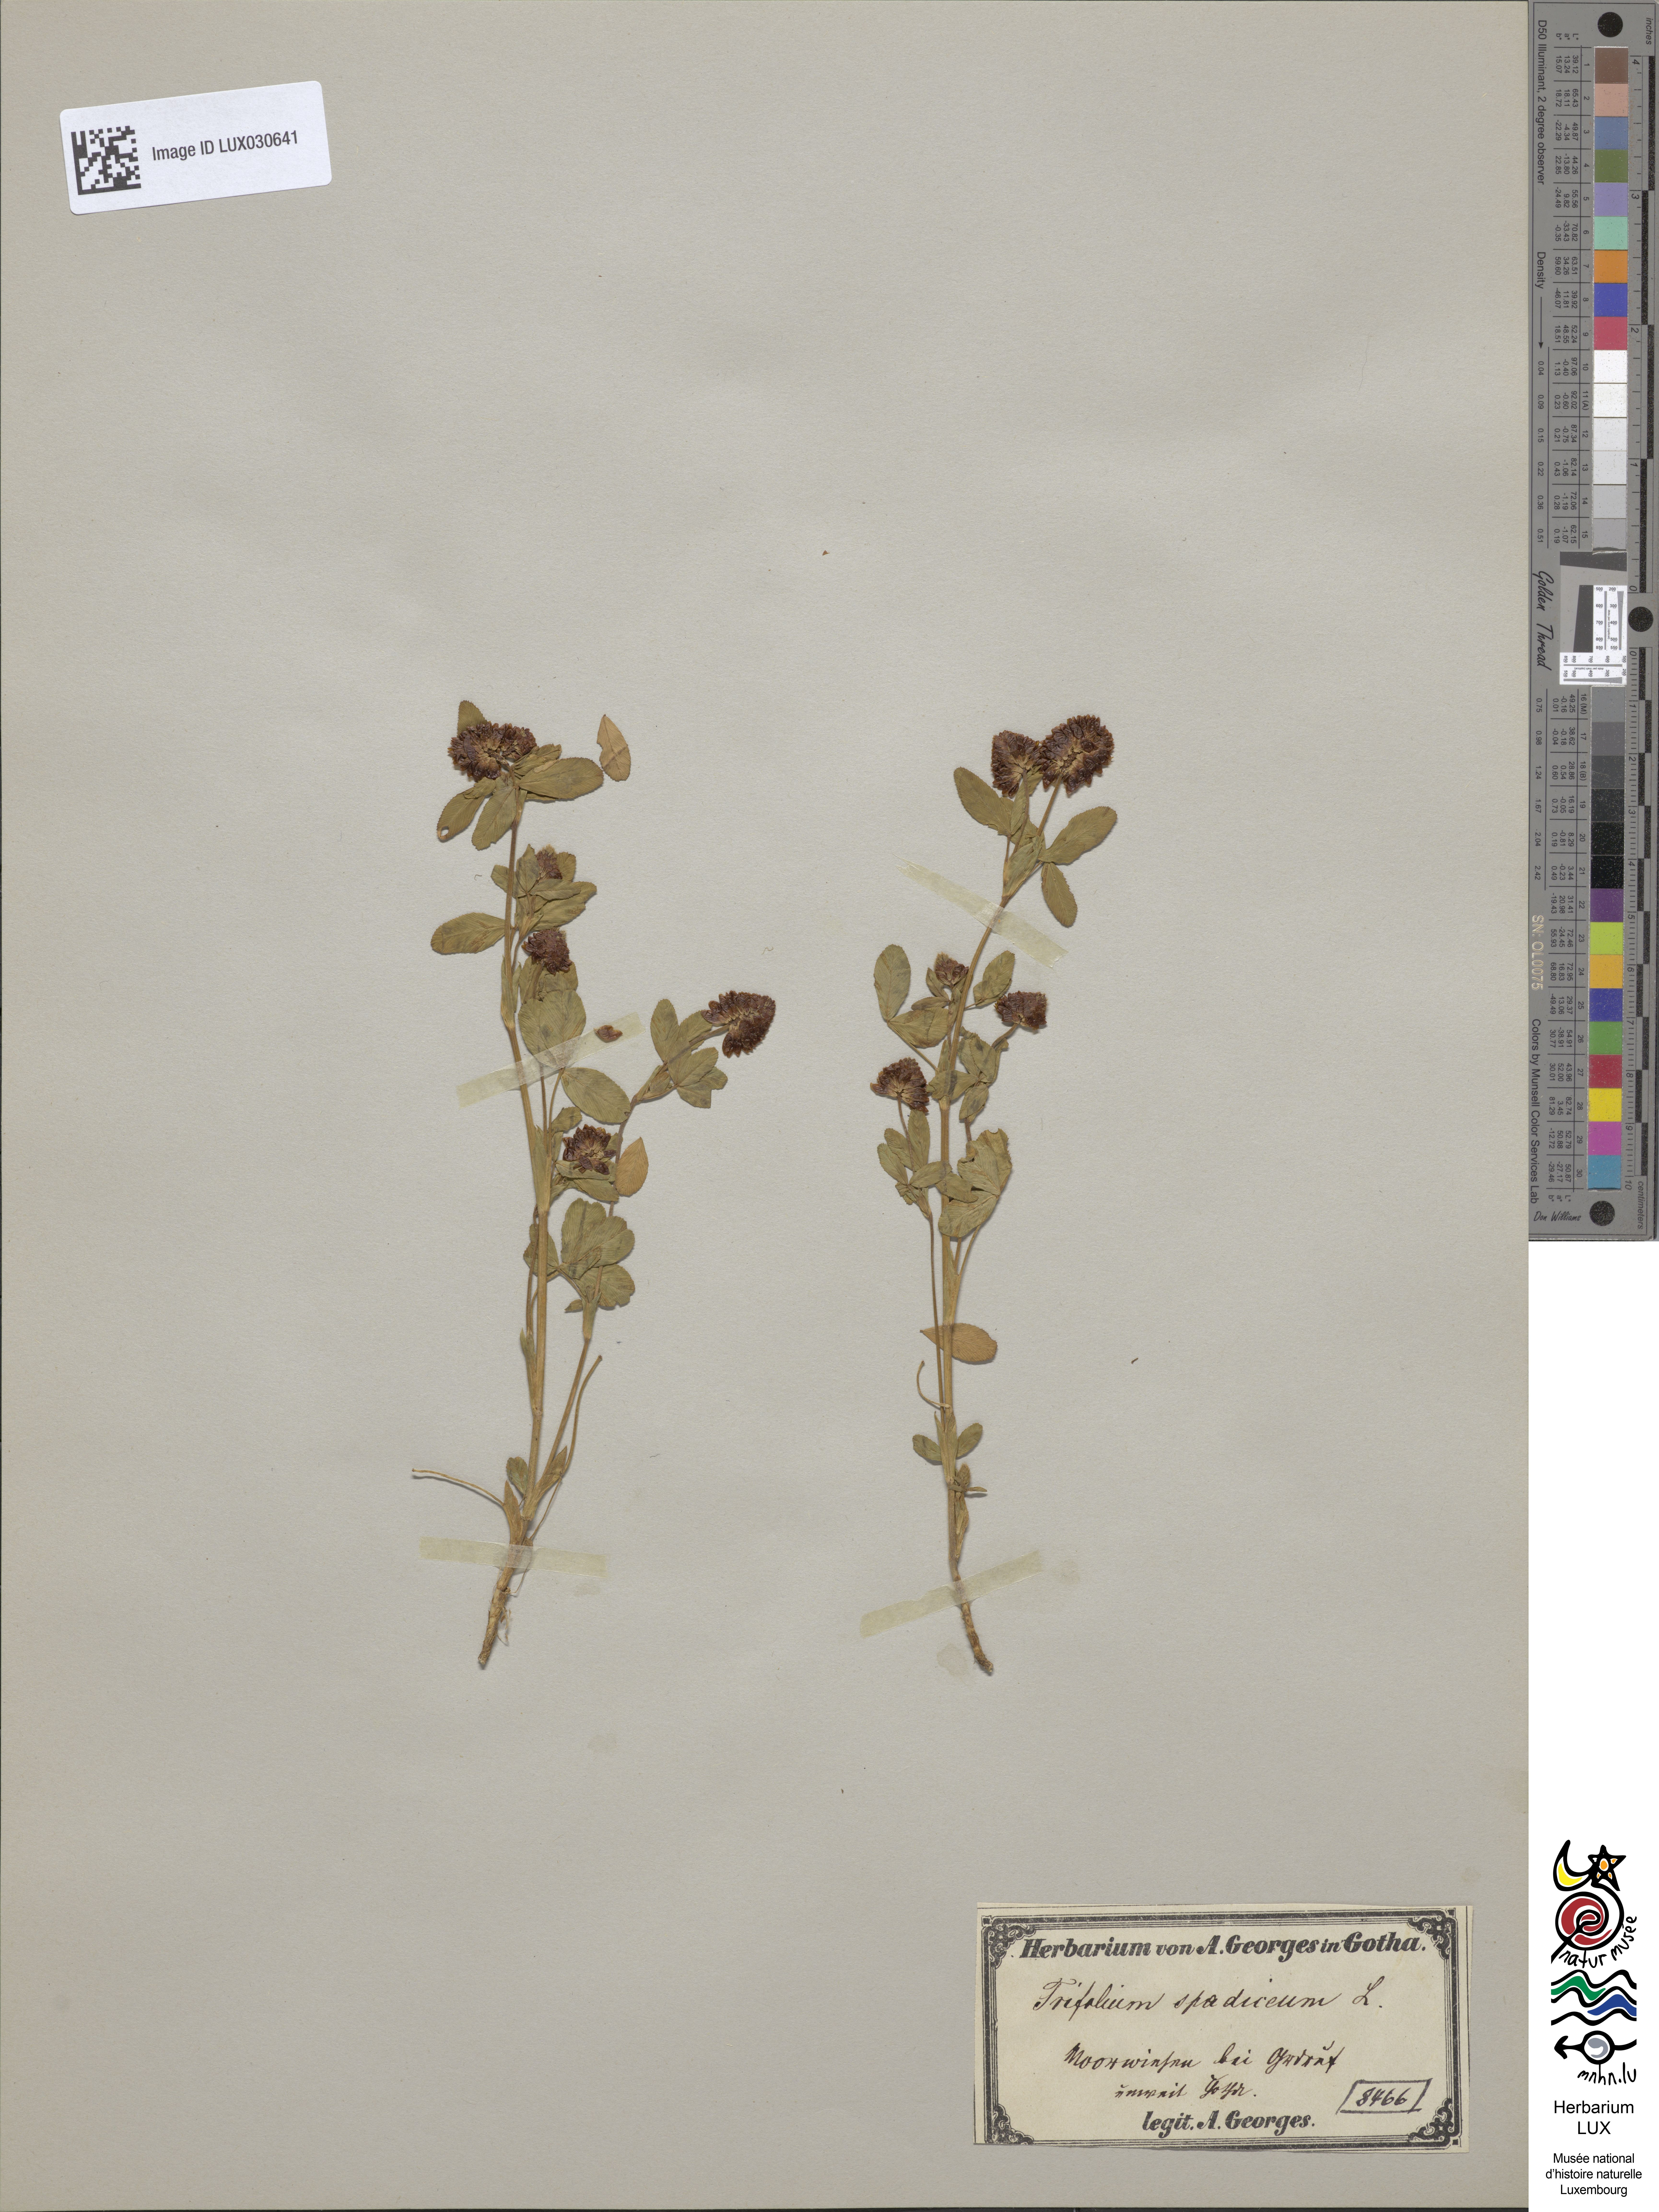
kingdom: Plantae
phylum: Tracheophyta
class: Magnoliopsida
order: Fabales
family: Fabaceae
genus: Trifolium
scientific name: Trifolium spadiceum
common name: Brown moor clover
